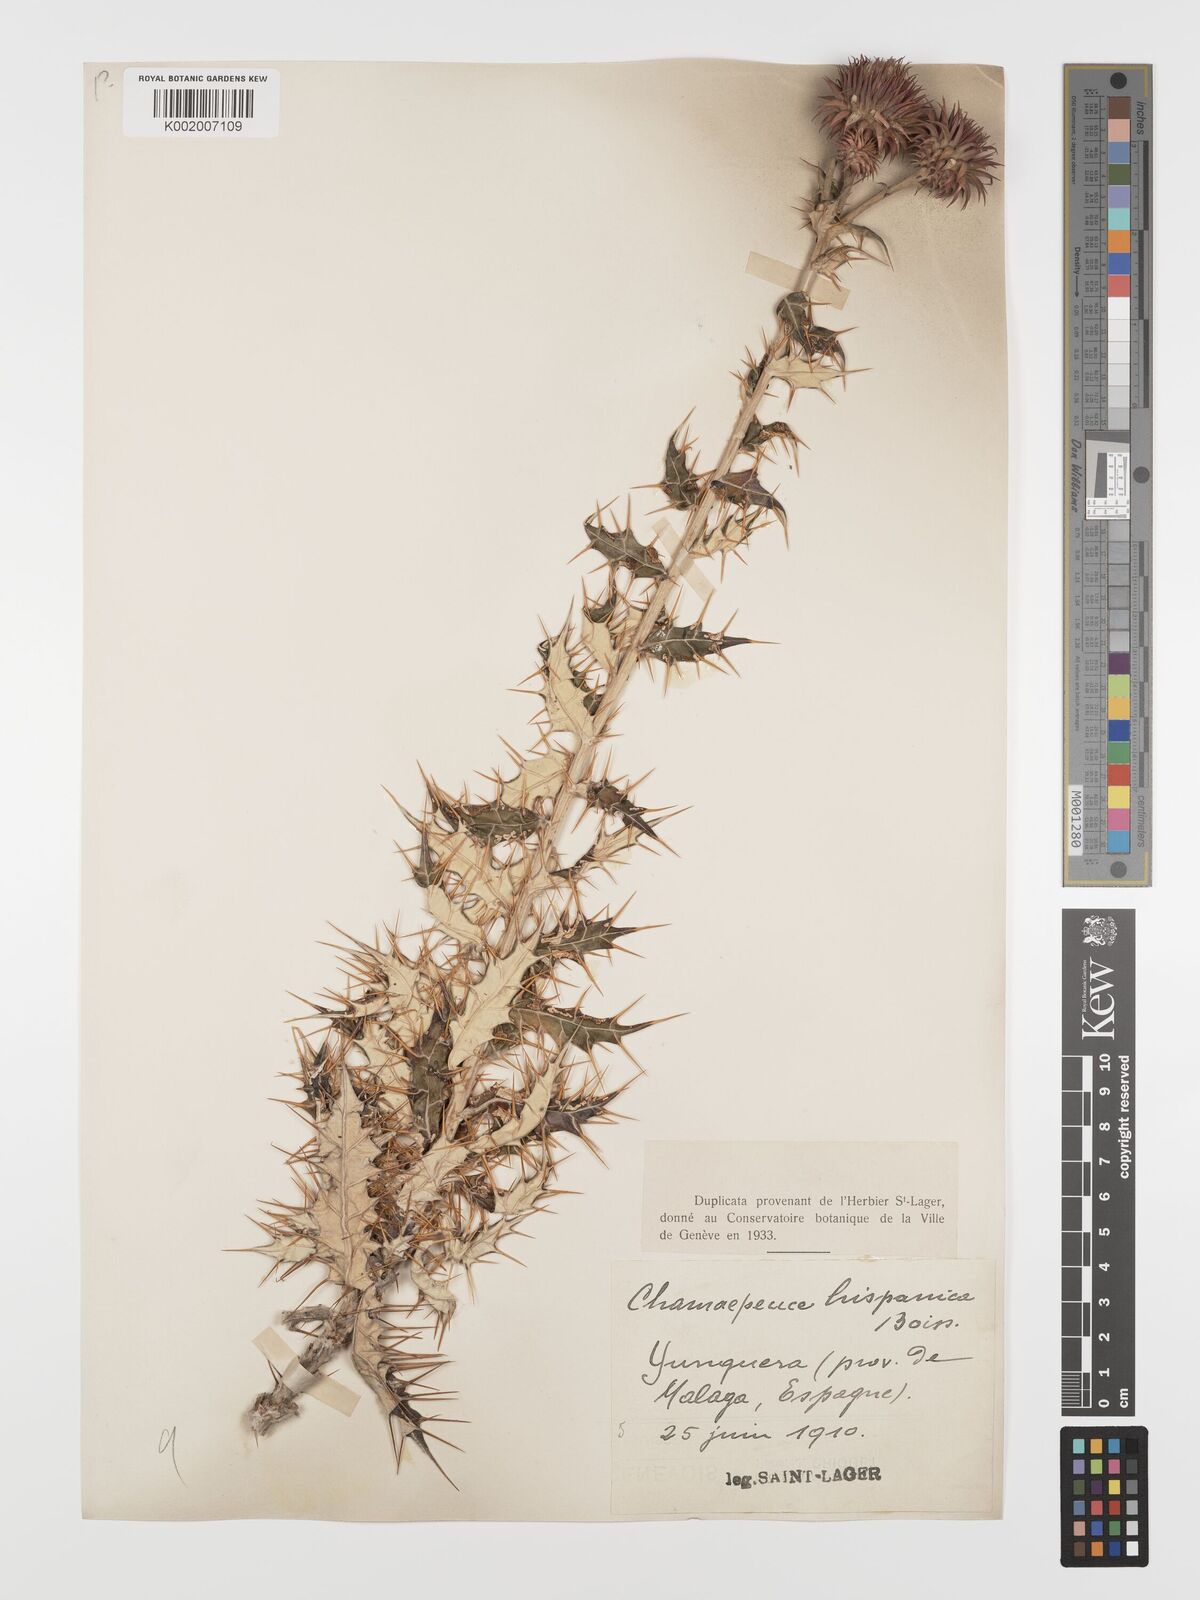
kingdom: Plantae
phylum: Tracheophyta
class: Magnoliopsida
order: Asterales
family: Asteraceae
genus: Ptilostemon
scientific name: Ptilostemon hispanicus
